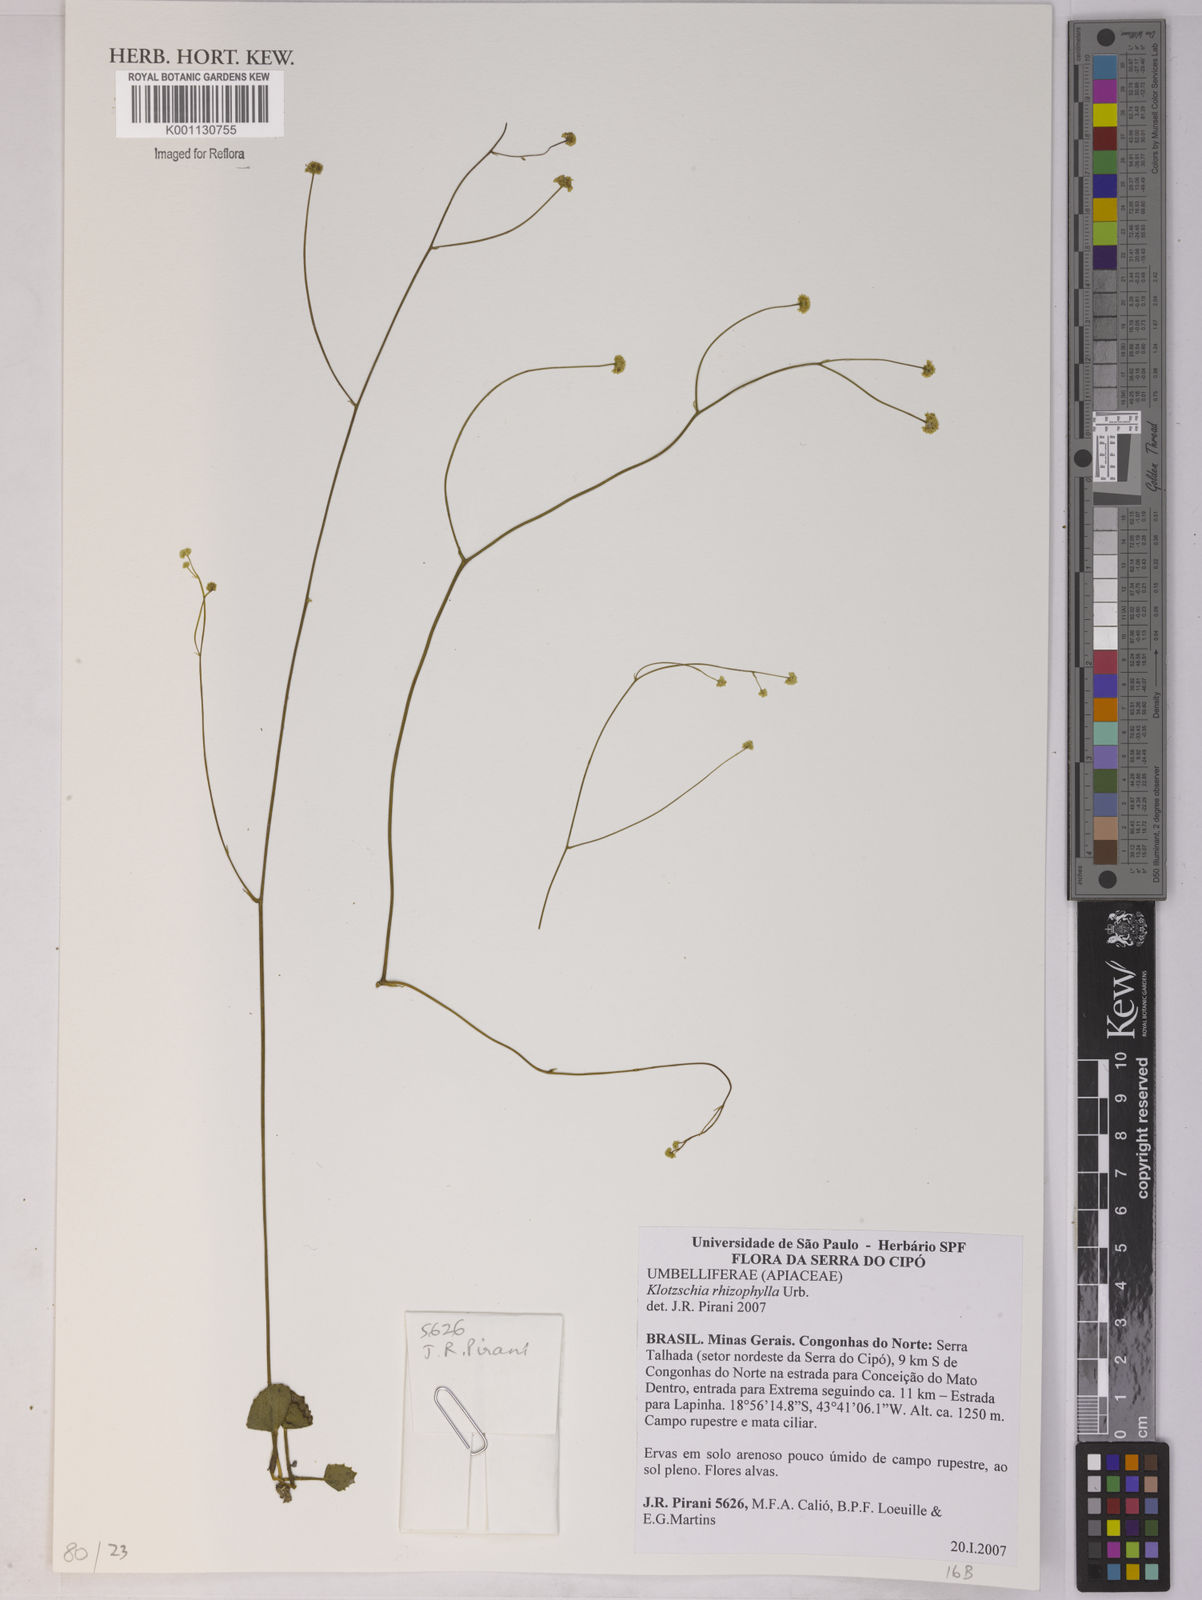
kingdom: Plantae
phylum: Tracheophyta
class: Magnoliopsida
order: Apiales
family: Apiaceae
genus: Klotzschia
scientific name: Klotzschia rhizophylla
